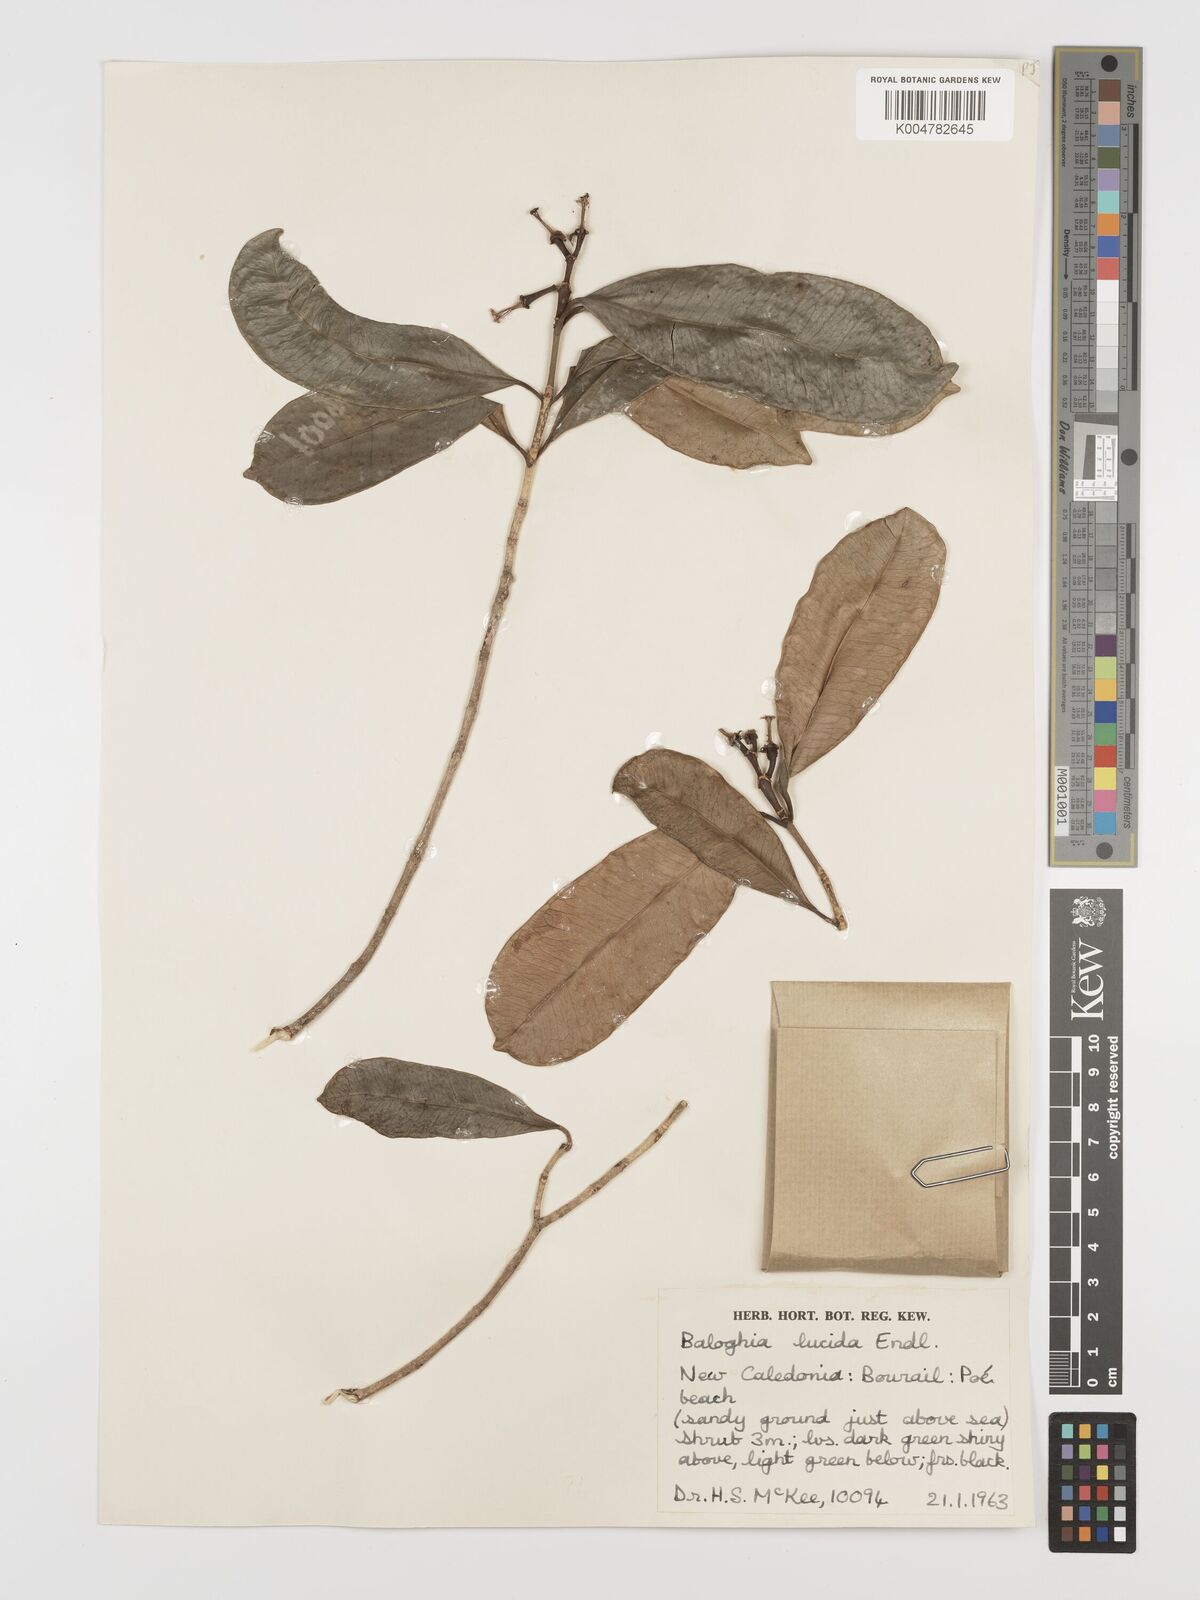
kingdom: Plantae
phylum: Tracheophyta
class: Magnoliopsida
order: Malpighiales
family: Euphorbiaceae
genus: Baloghia
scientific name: Baloghia inophylla
